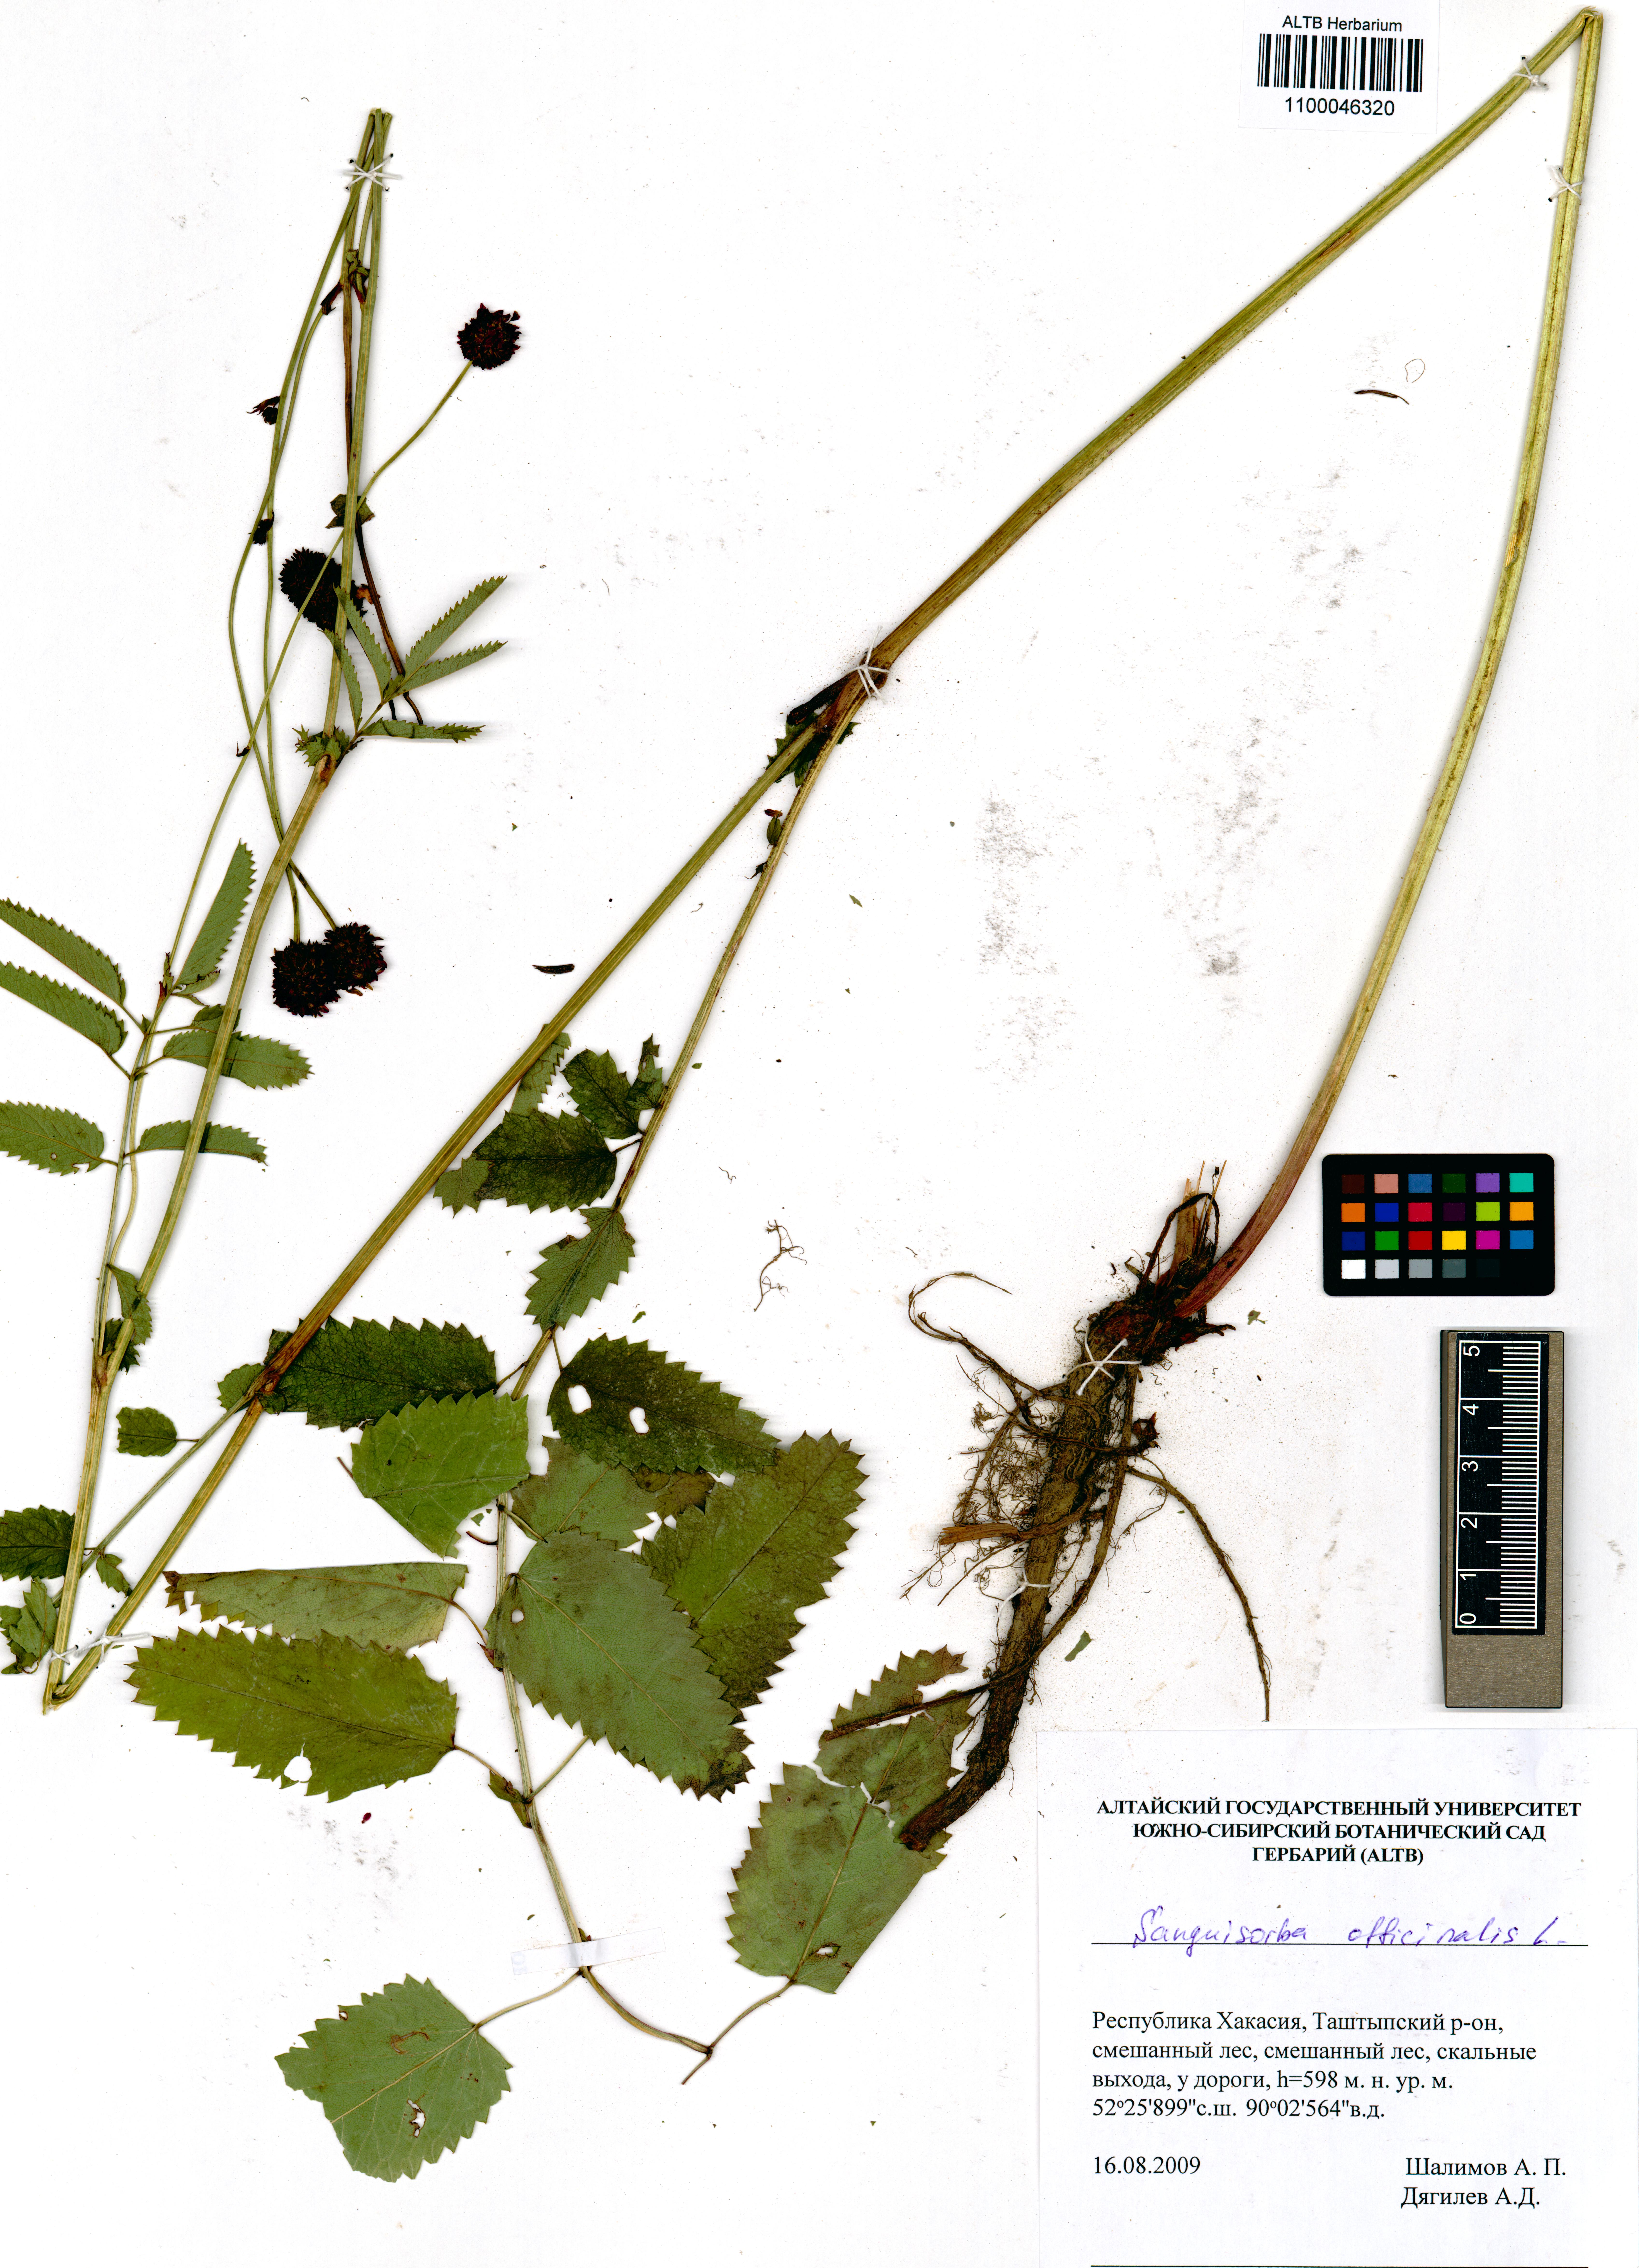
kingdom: Plantae
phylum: Tracheophyta
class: Magnoliopsida
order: Rosales
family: Rosaceae
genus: Sanguisorba
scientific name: Sanguisorba officinalis
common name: Great burnet
